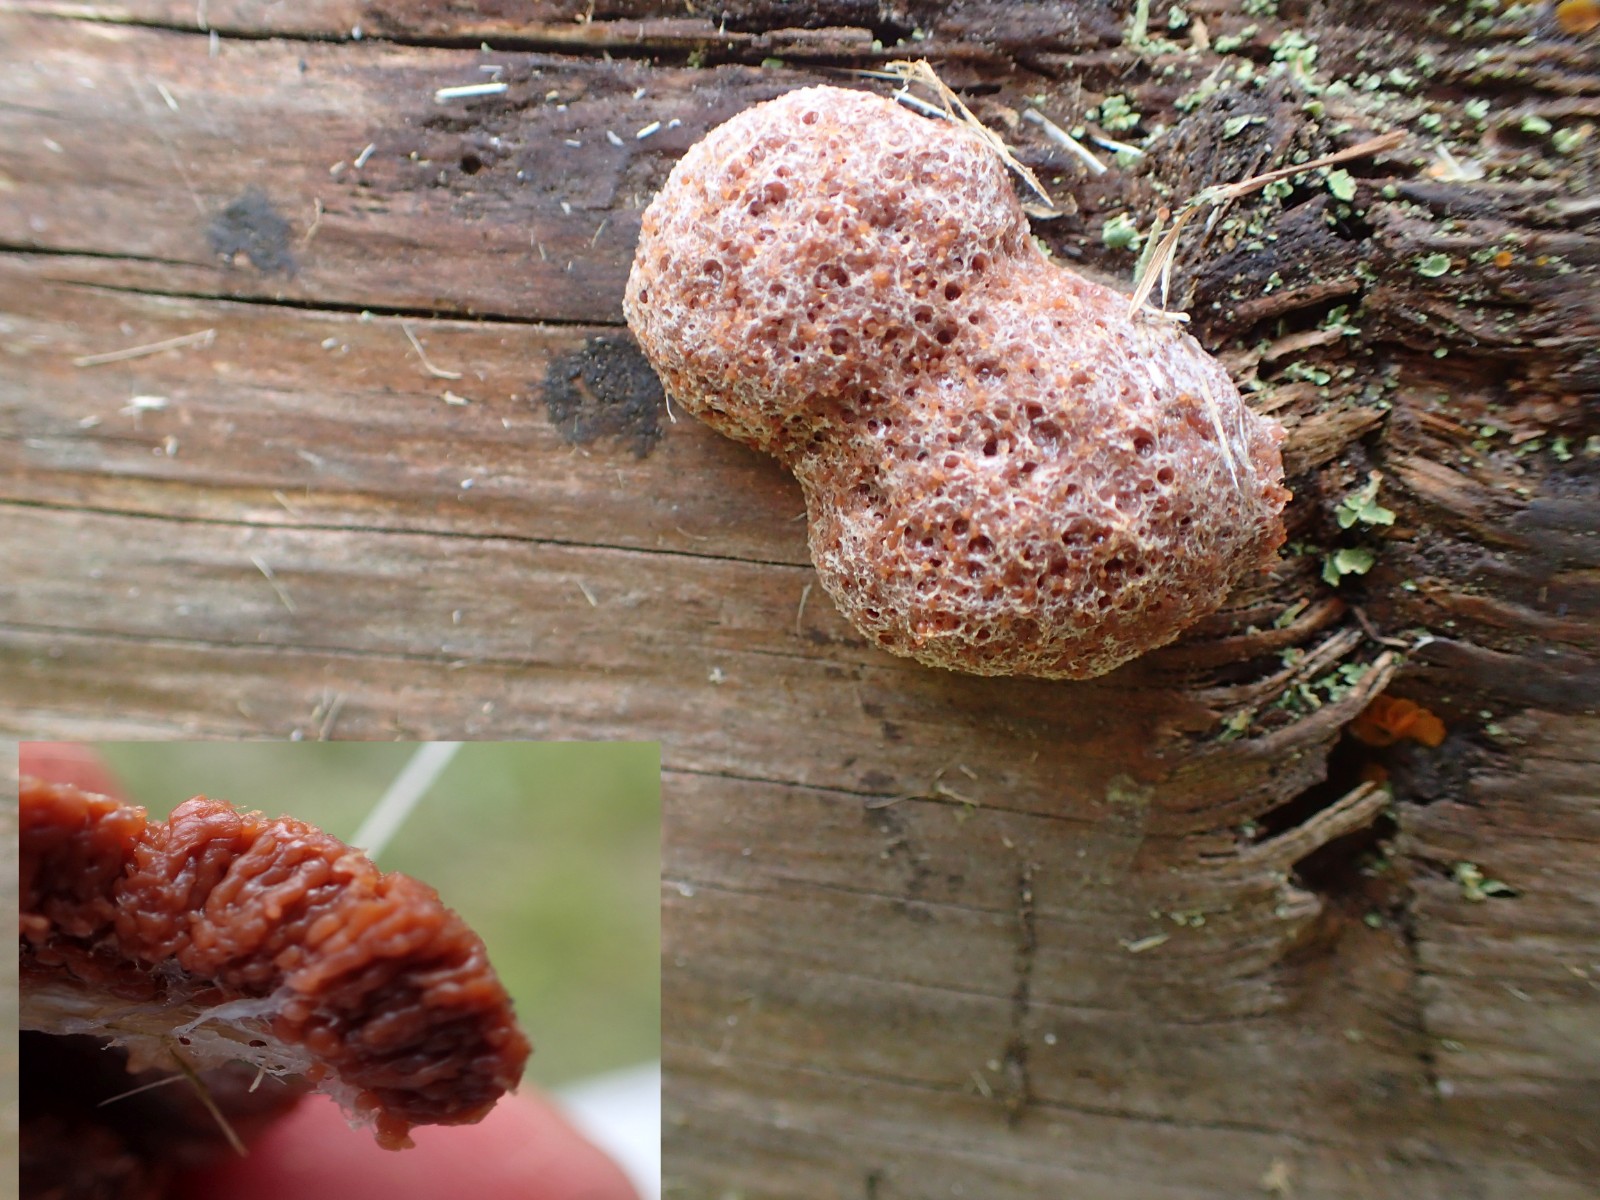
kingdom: Protozoa
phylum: Mycetozoa
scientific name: Mycetozoa
